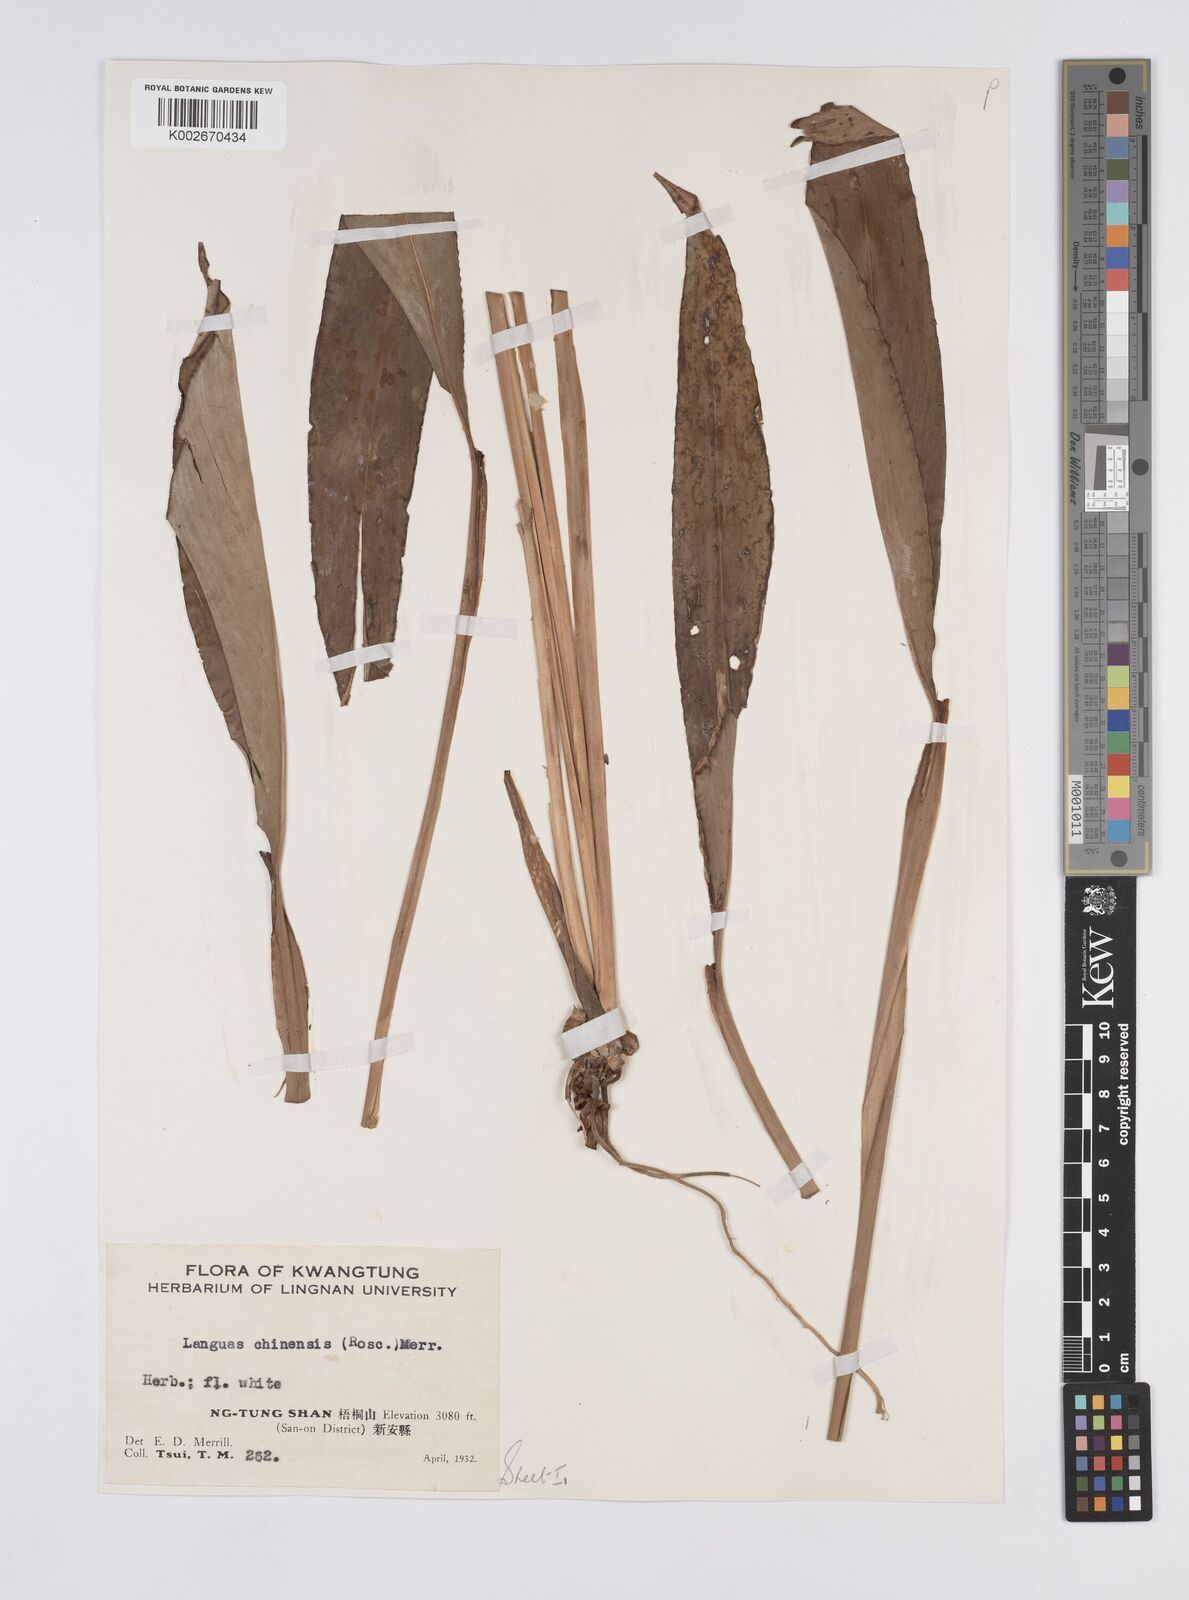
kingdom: Plantae
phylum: Tracheophyta
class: Liliopsida
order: Zingiberales
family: Zingiberaceae
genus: Alpinia
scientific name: Alpinia chinensis
